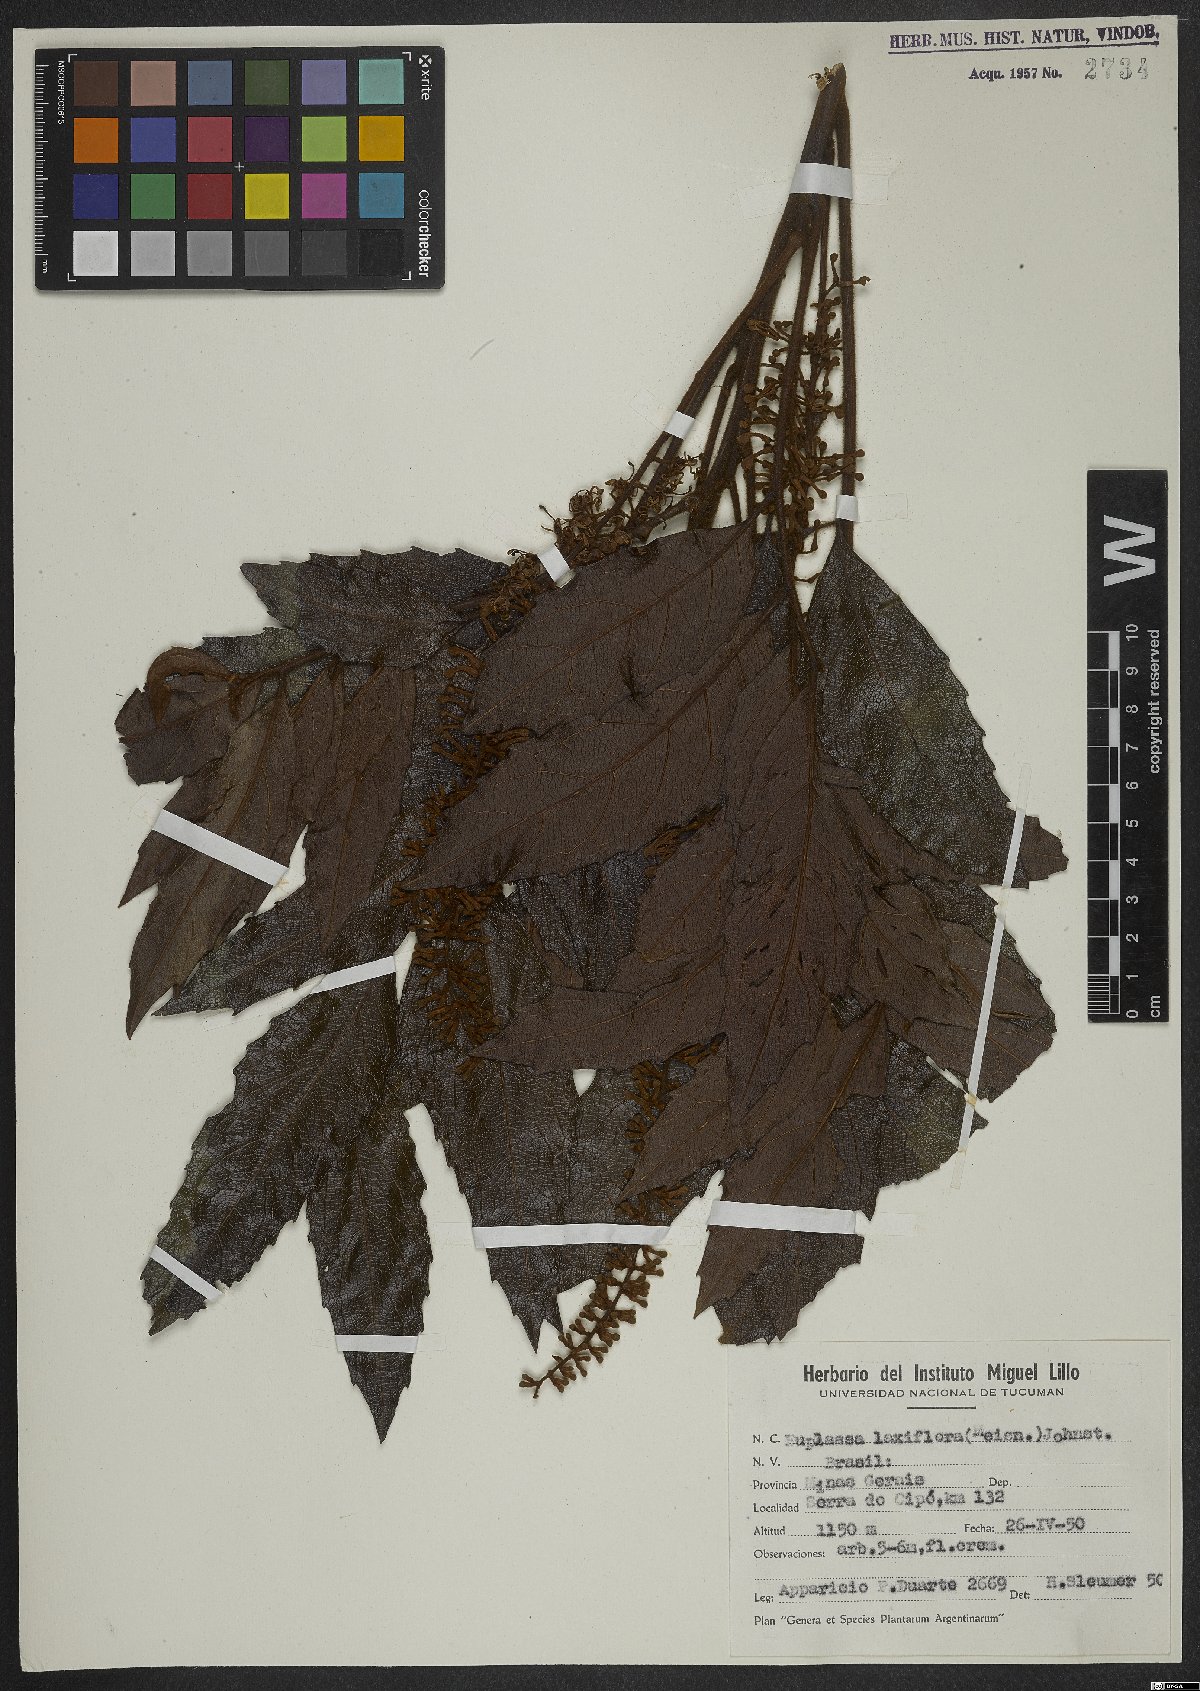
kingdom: Plantae
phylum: Tracheophyta
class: Magnoliopsida
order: Proteales
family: Proteaceae
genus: Euplassa
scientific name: Euplassa organensis
